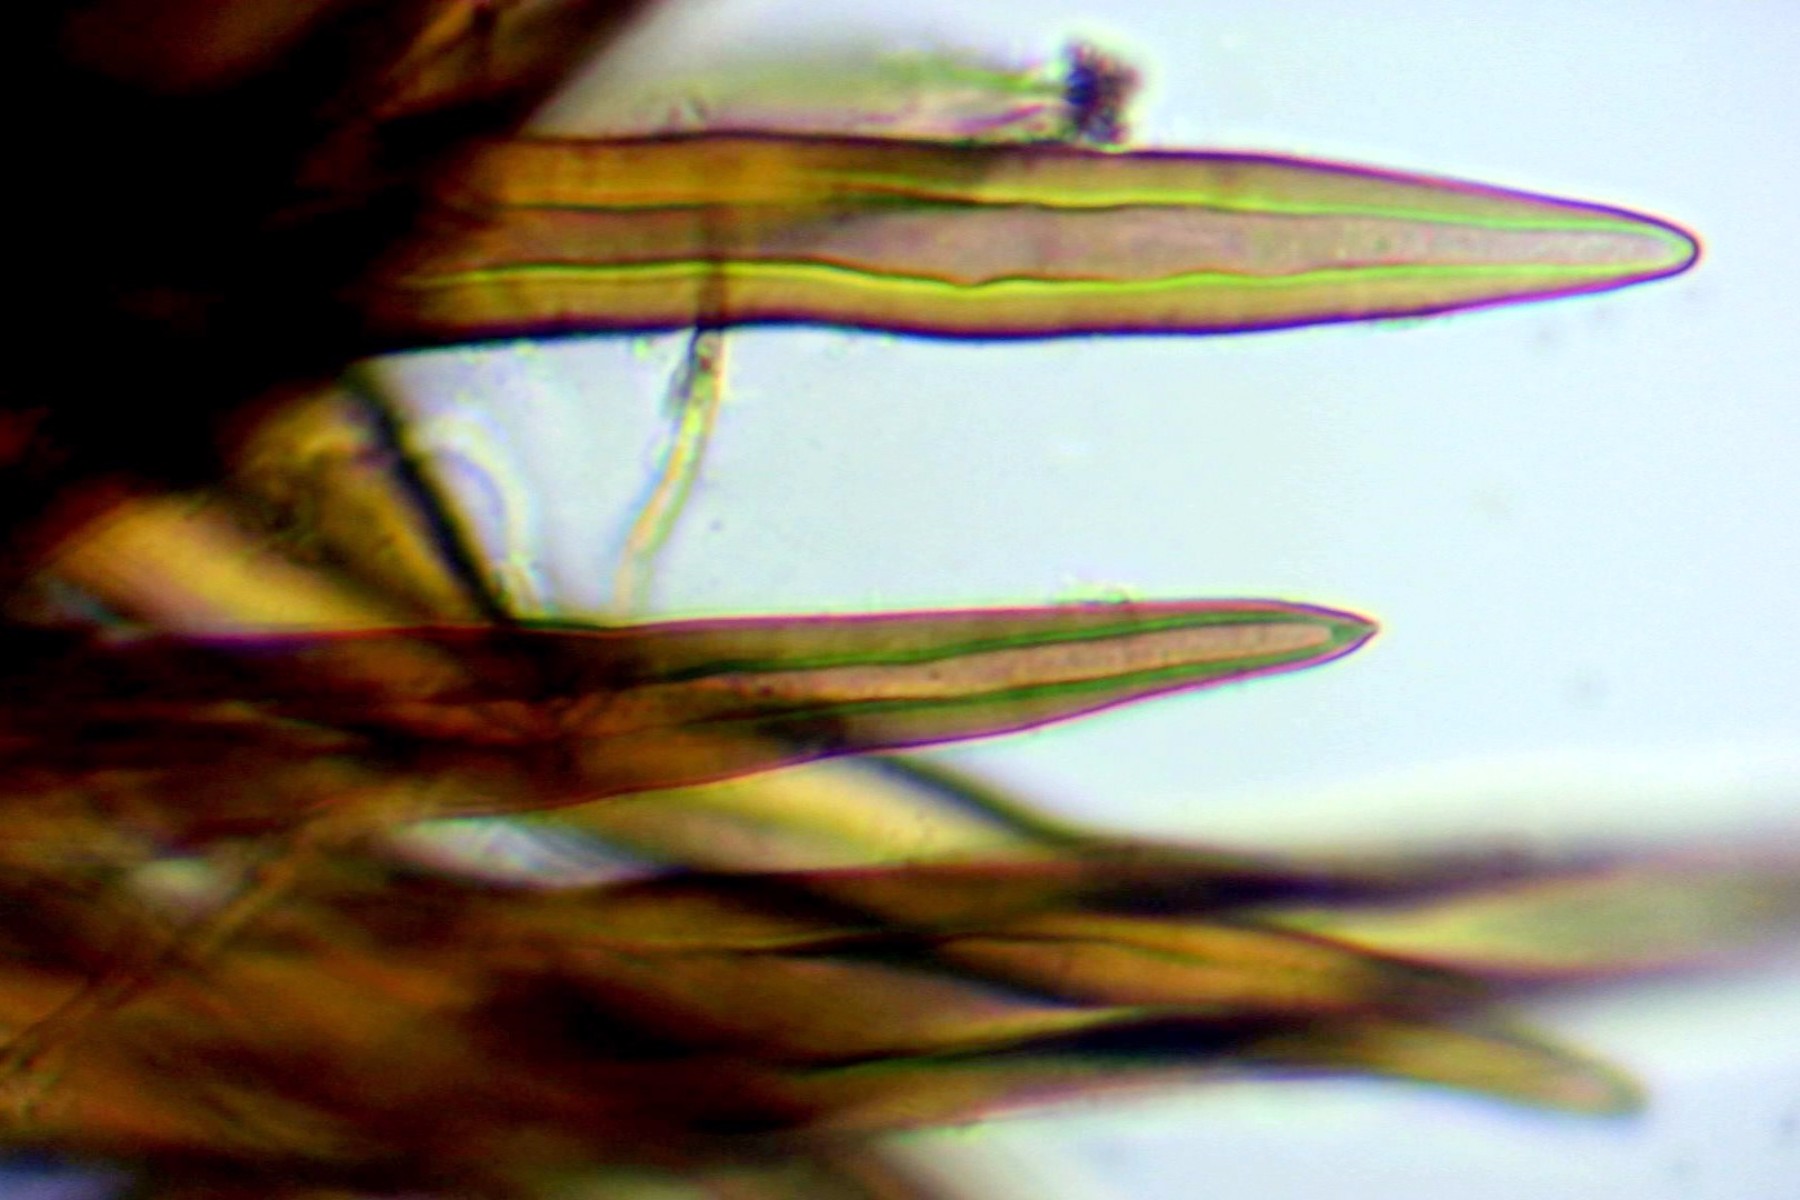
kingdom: Fungi
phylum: Ascomycota
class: Sordariomycetes
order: Sordariales
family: Helminthosphaeriaceae
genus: Echinosphaeria
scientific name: Echinosphaeria canescens
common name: brun børstekerne
